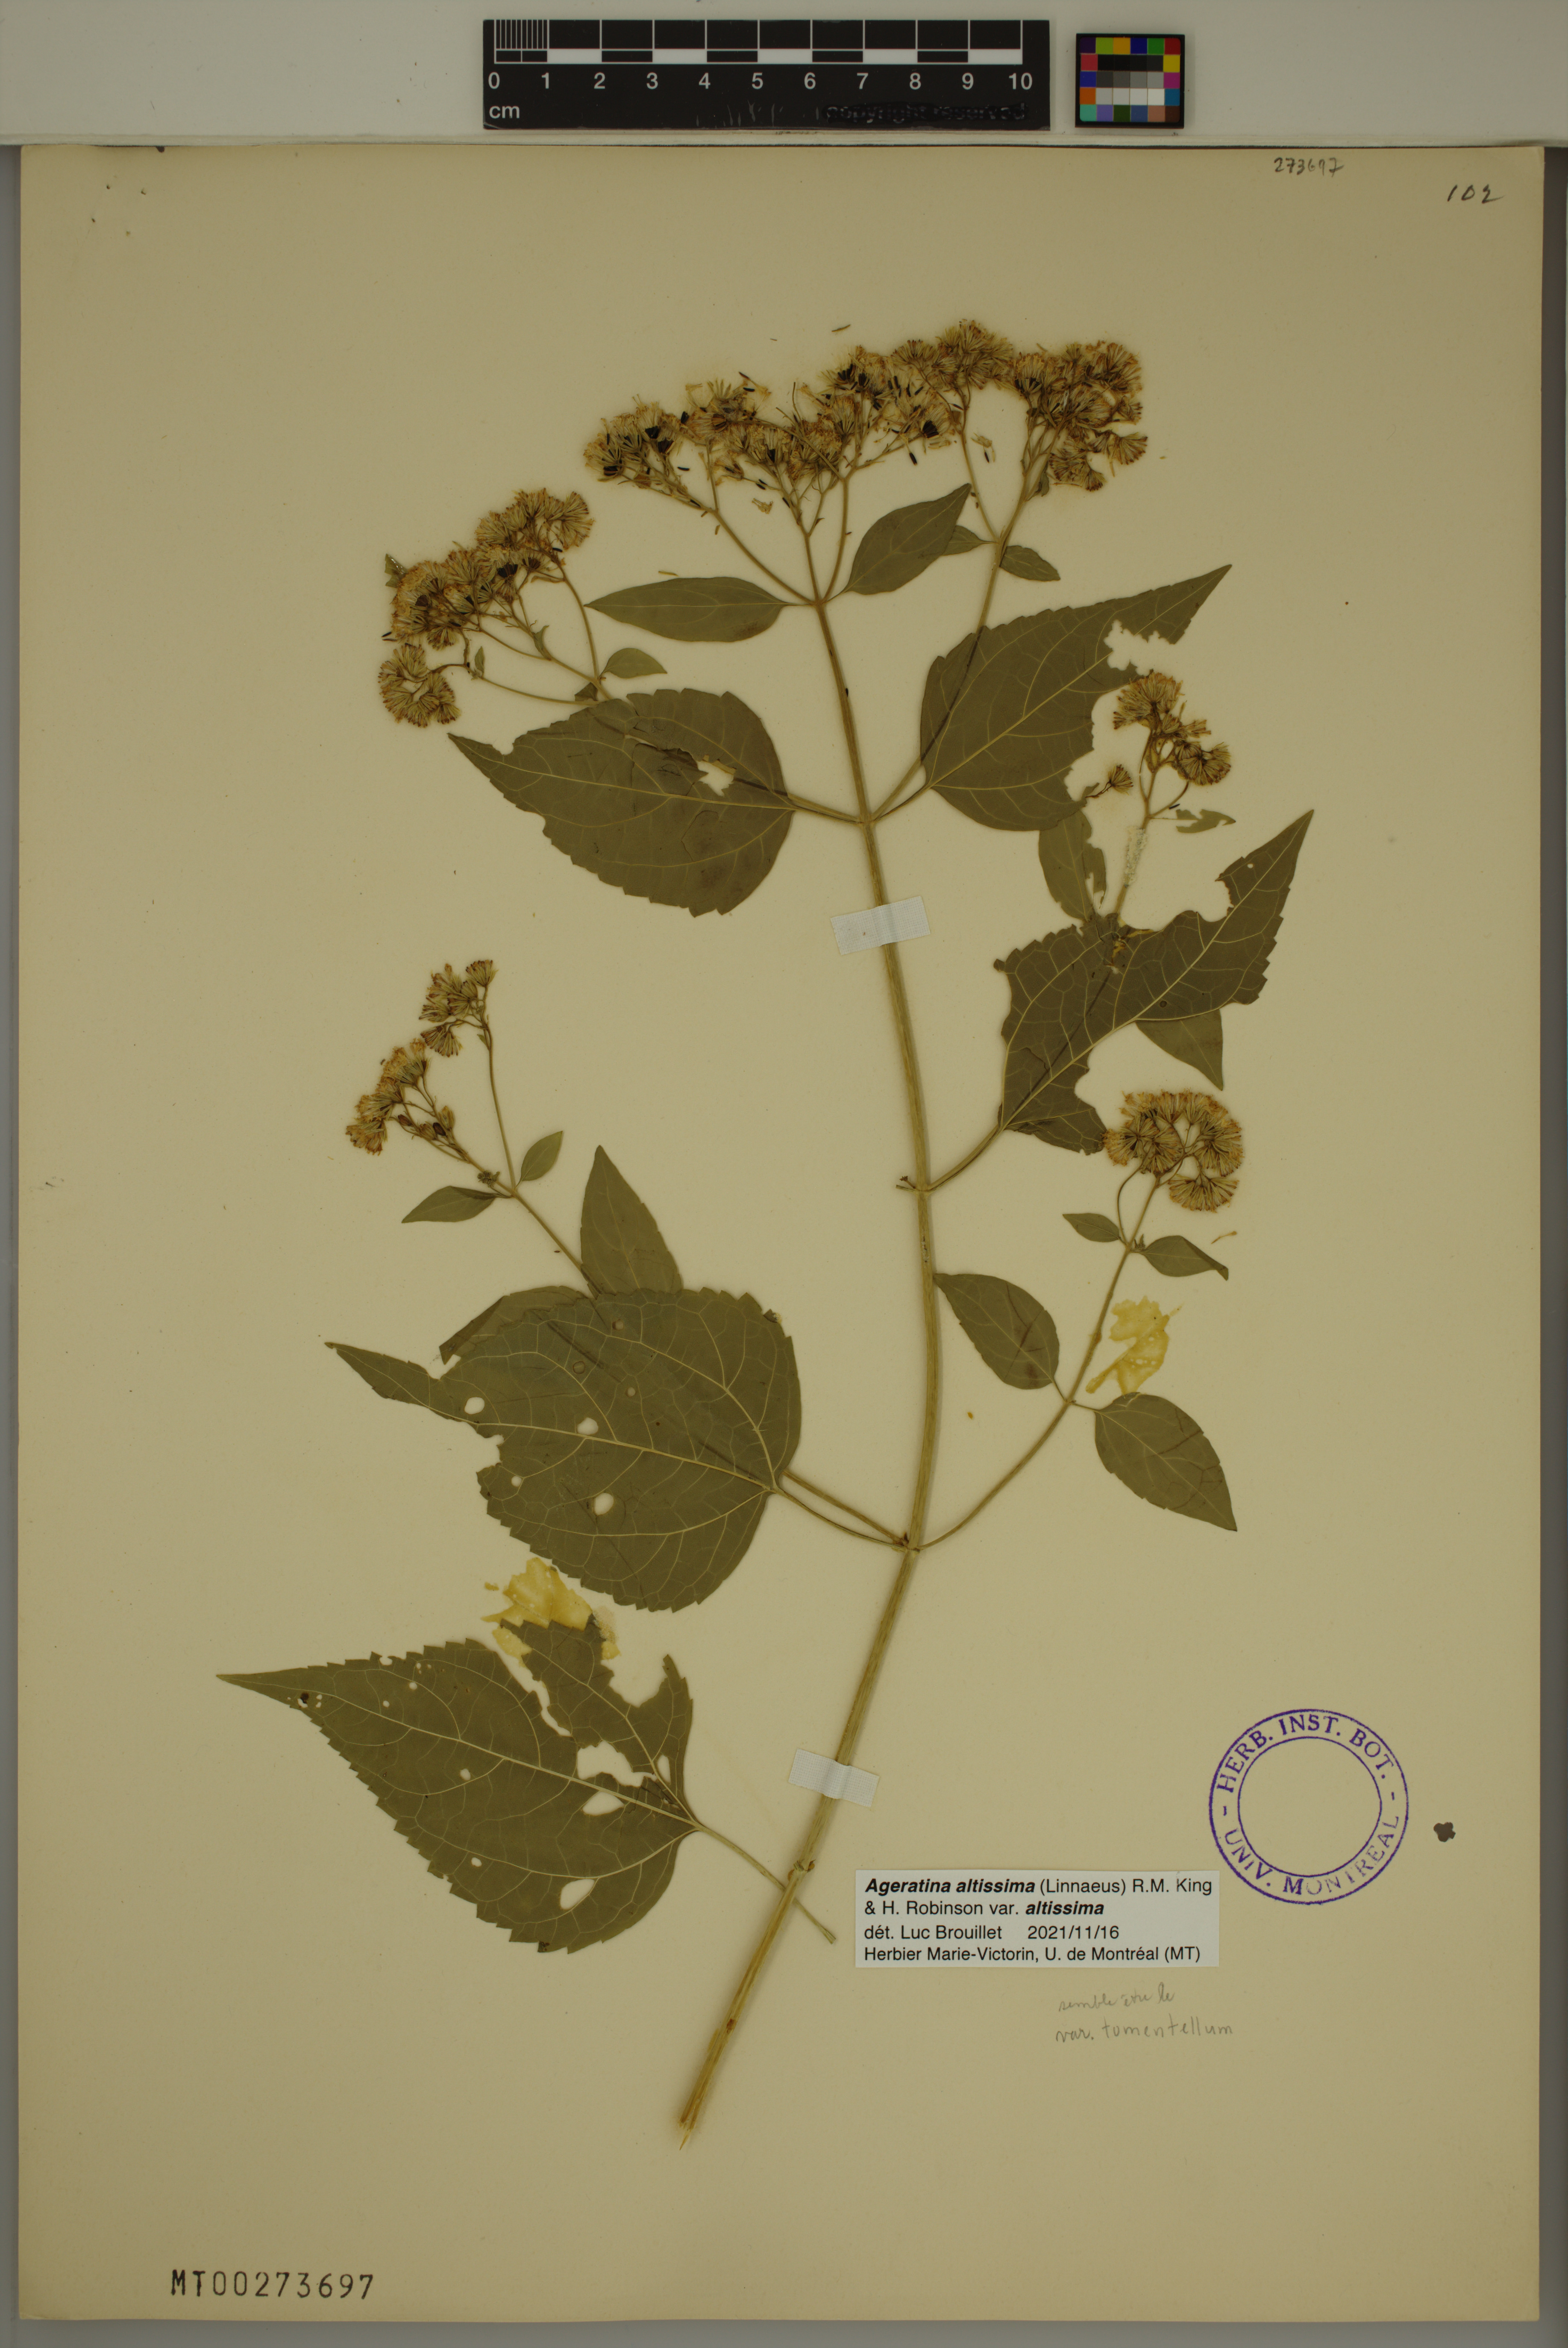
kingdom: Plantae
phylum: Tracheophyta
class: Magnoliopsida
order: Asterales
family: Asteraceae
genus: Ageratina
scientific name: Ageratina altissima
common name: White snakeroot
